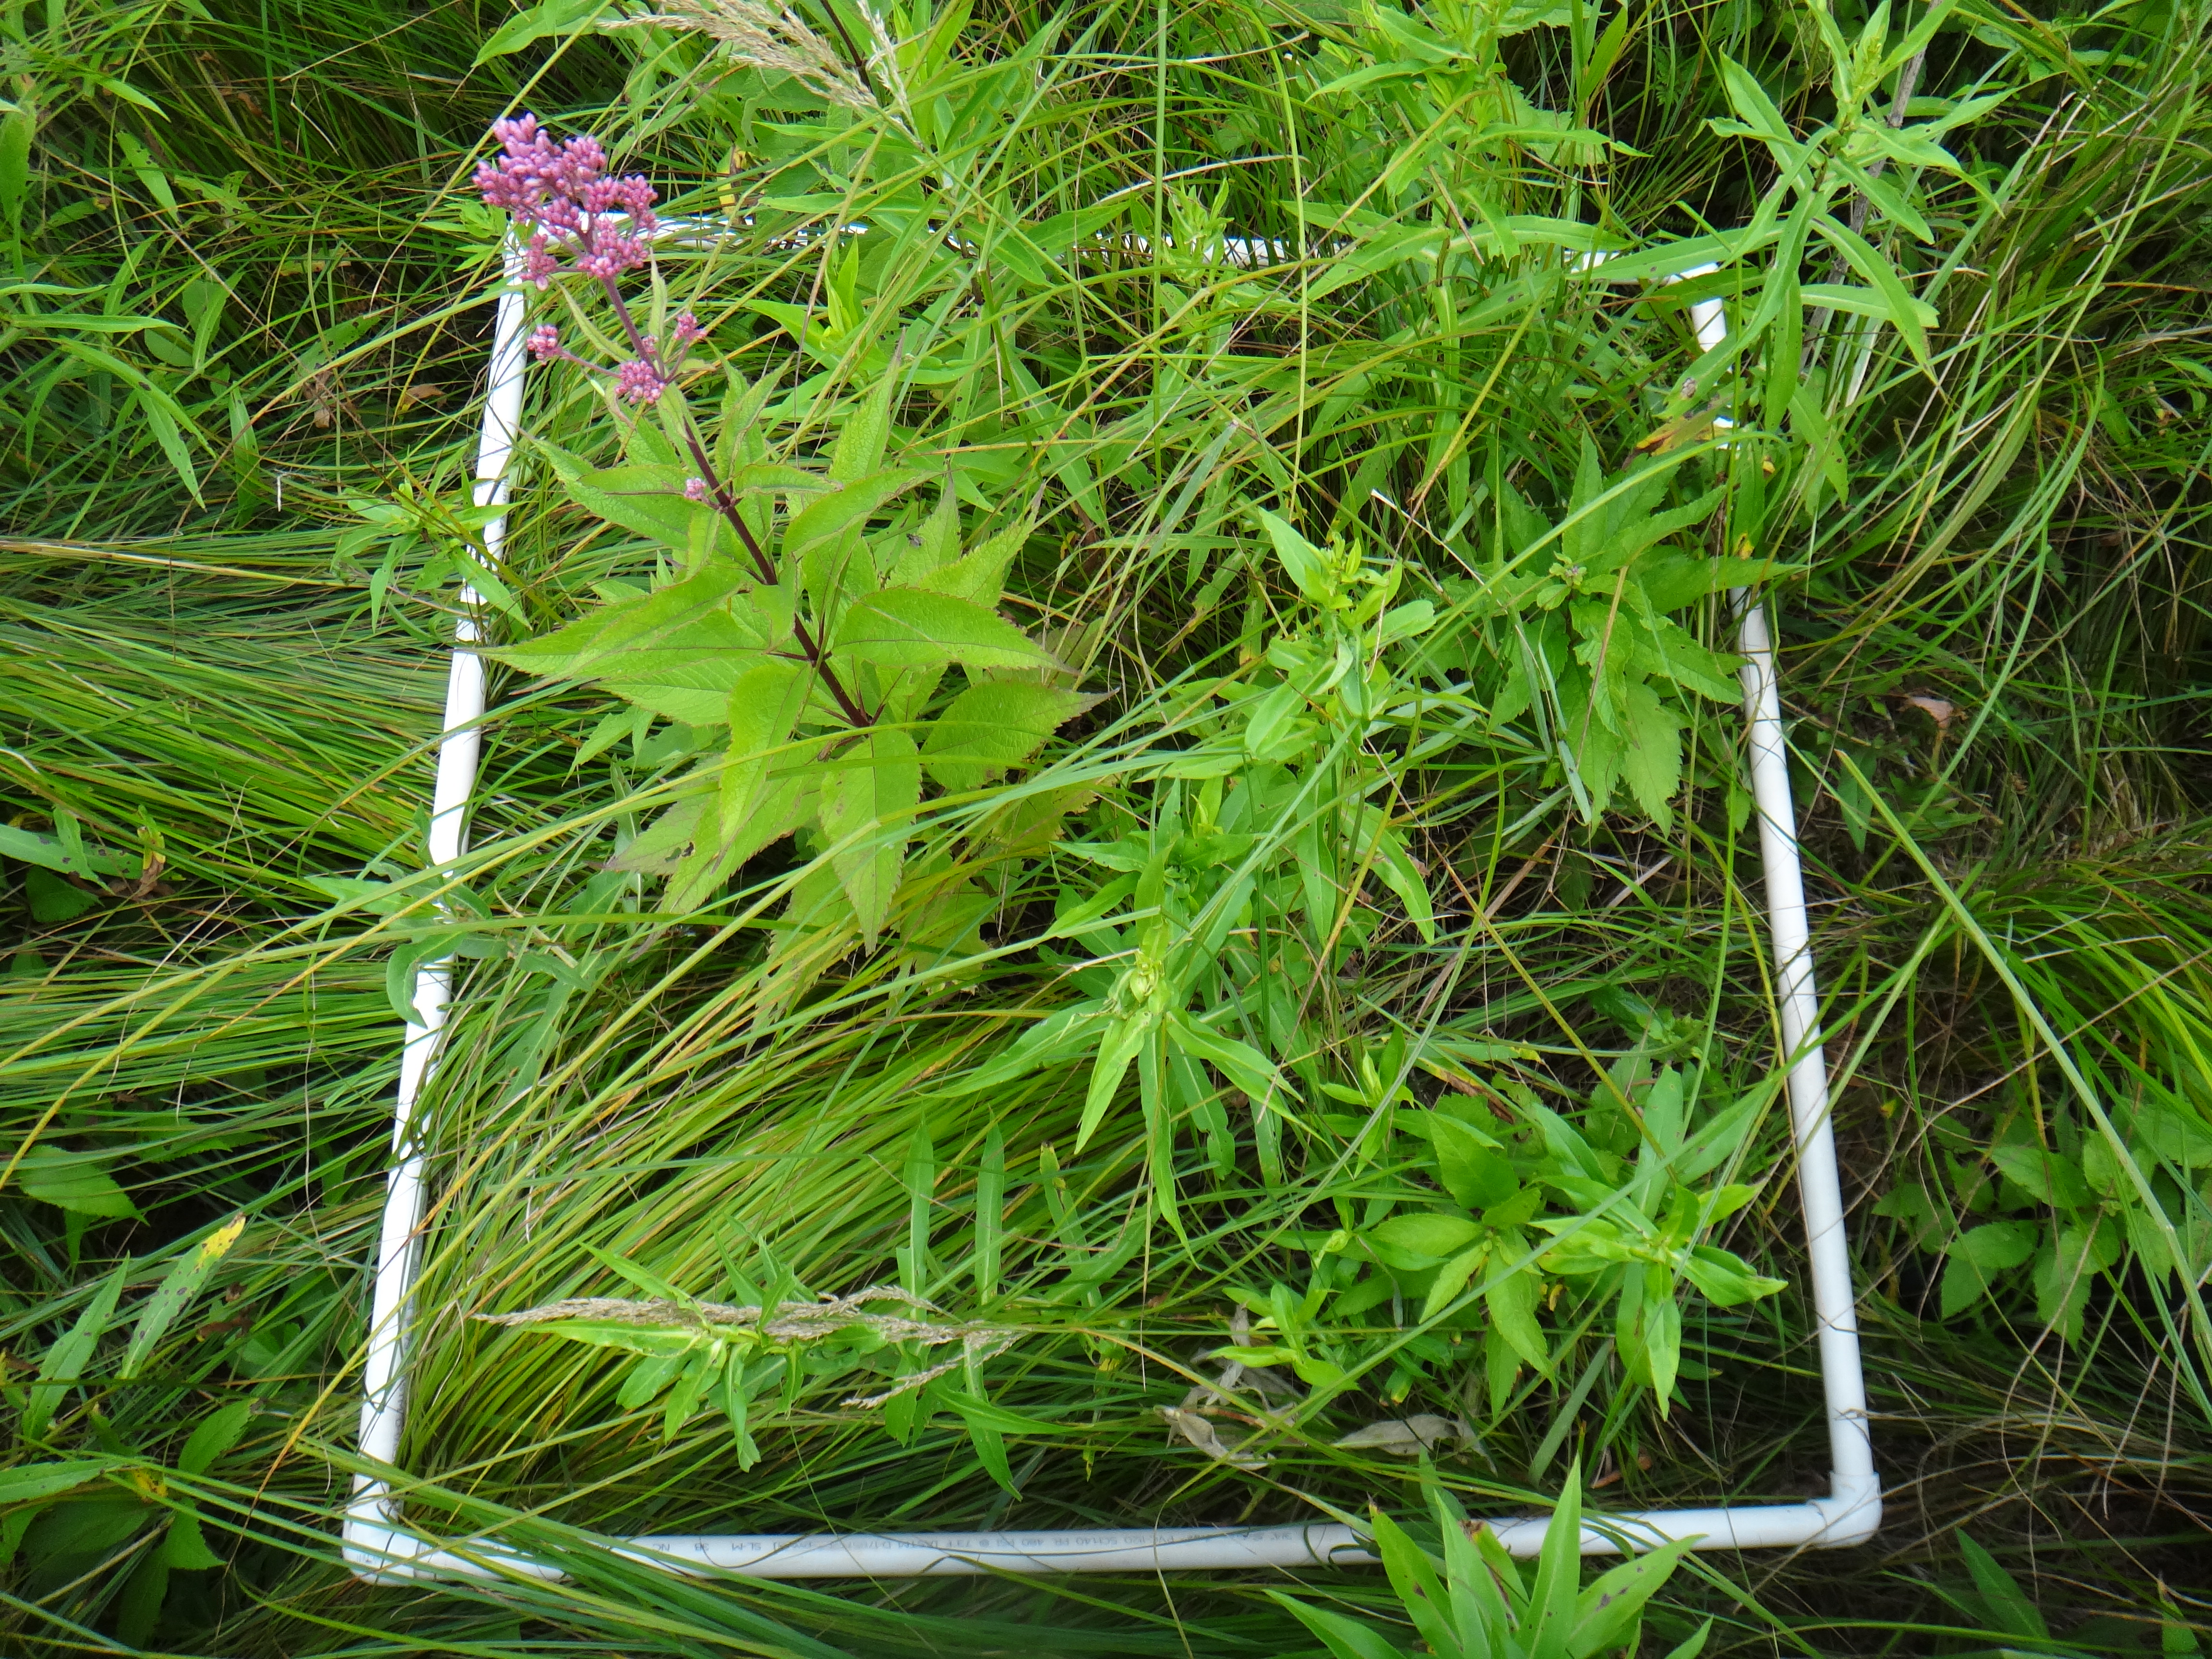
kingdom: Plantae
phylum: Tracheophyta
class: Liliopsida
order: Poales
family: Cyperaceae
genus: Carex
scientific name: Carex stricta
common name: Hummock sedge
